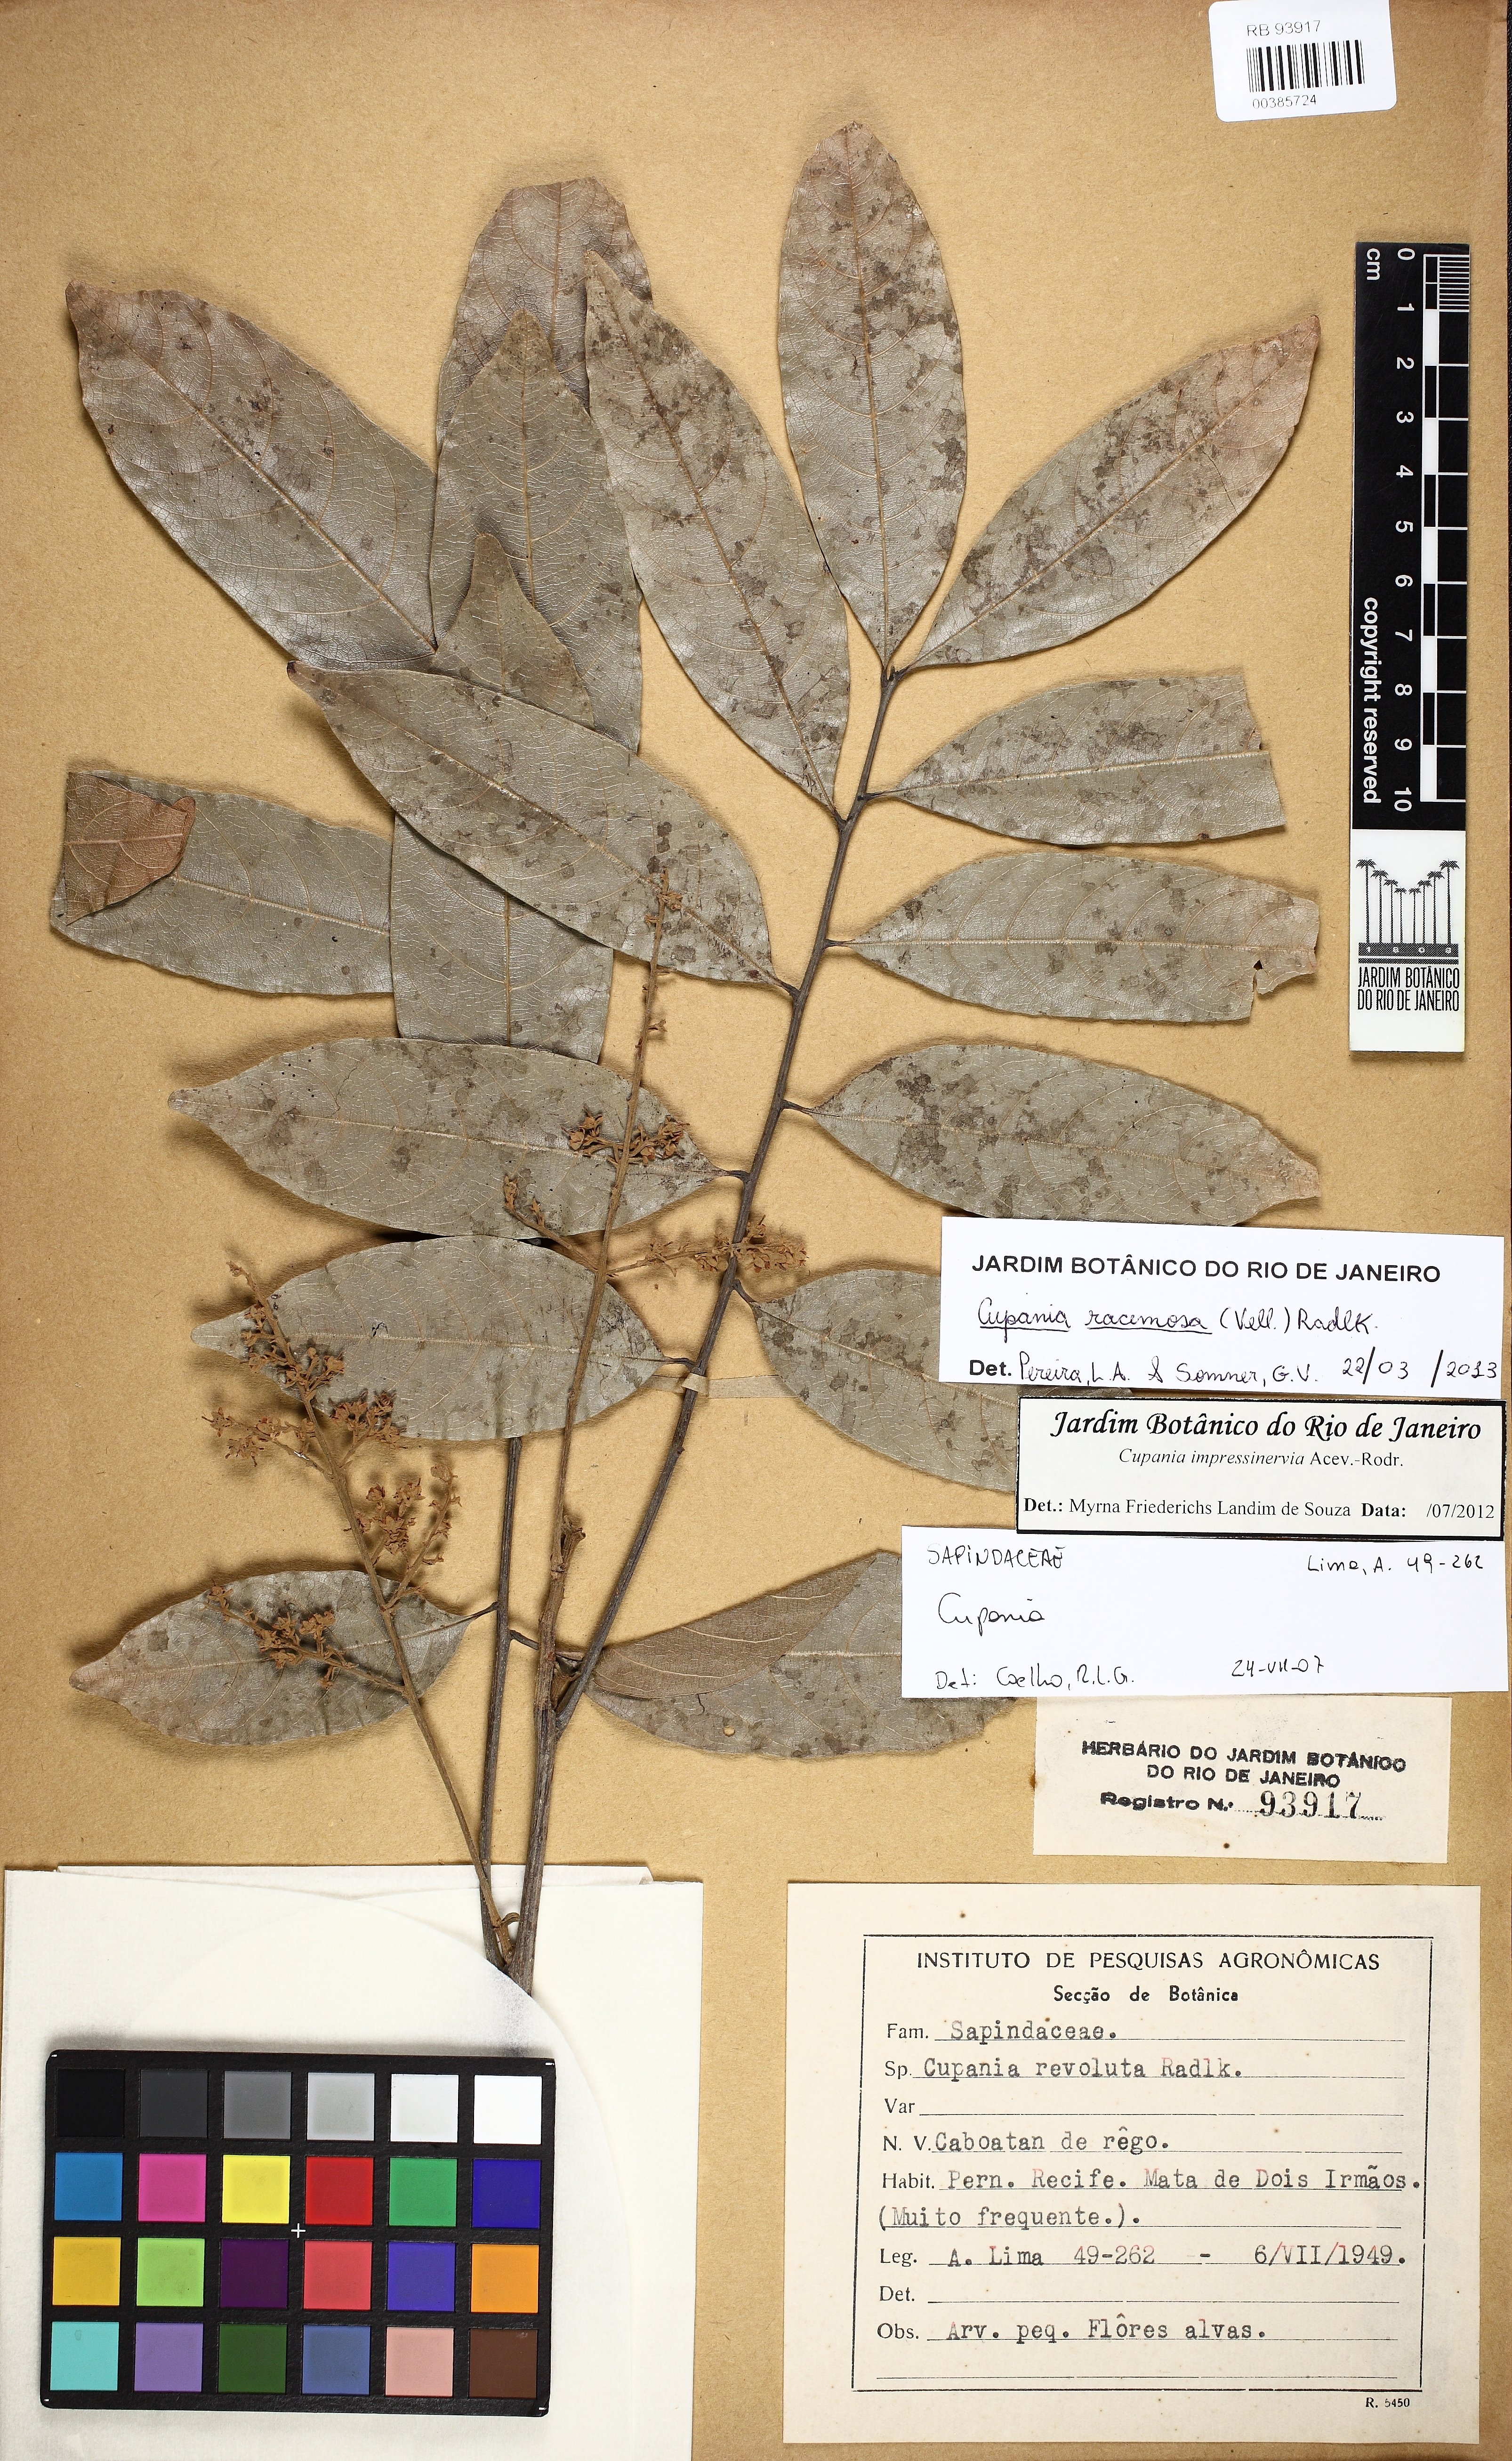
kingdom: Plantae
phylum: Tracheophyta
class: Magnoliopsida
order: Sapindales
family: Sapindaceae
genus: Cupania
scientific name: Cupania racemosa
